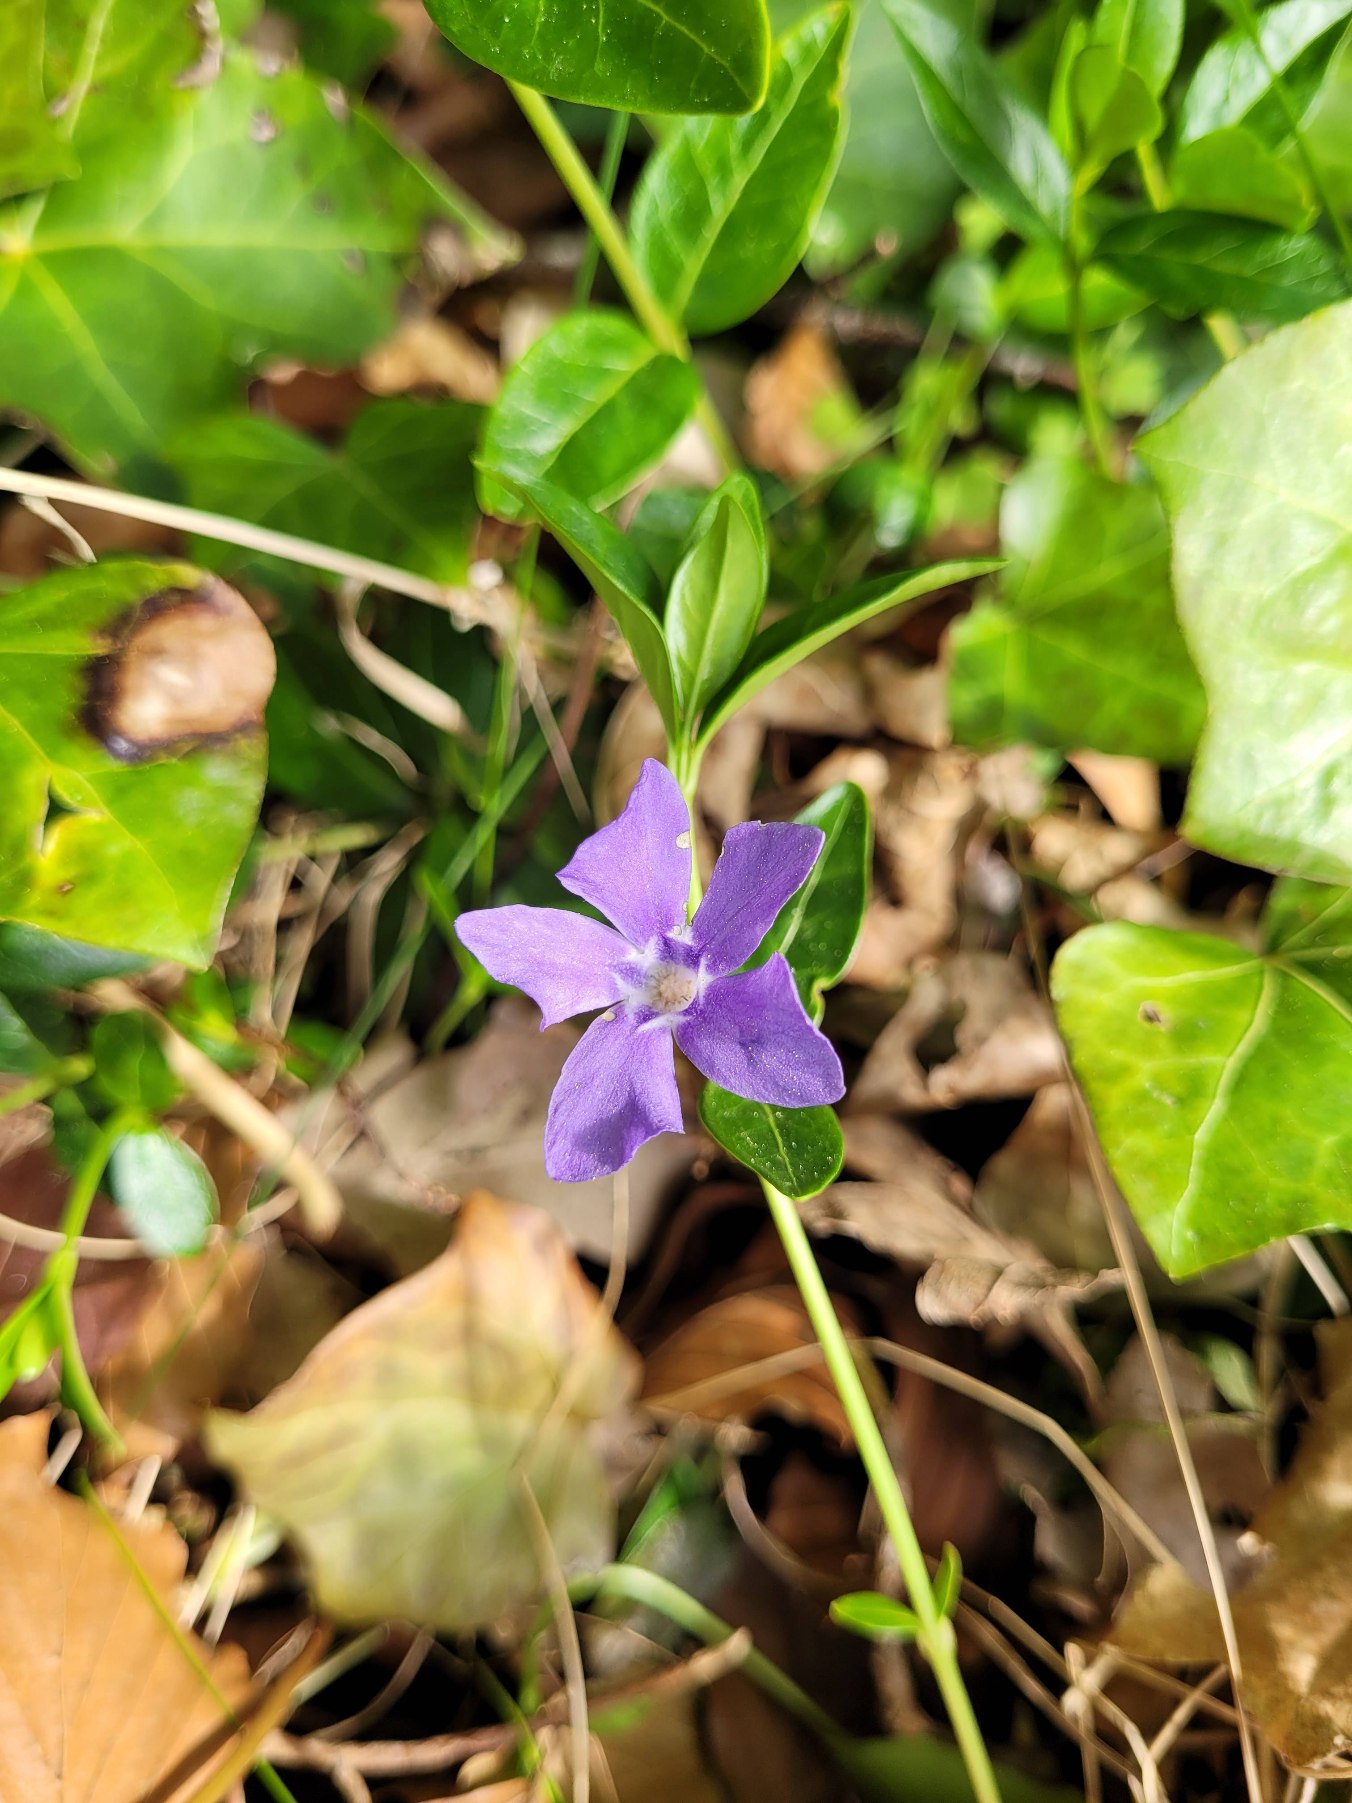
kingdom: Plantae
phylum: Tracheophyta
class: Magnoliopsida
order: Gentianales
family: Apocynaceae
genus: Vinca
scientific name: Vinca minor
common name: Liden singrøn
